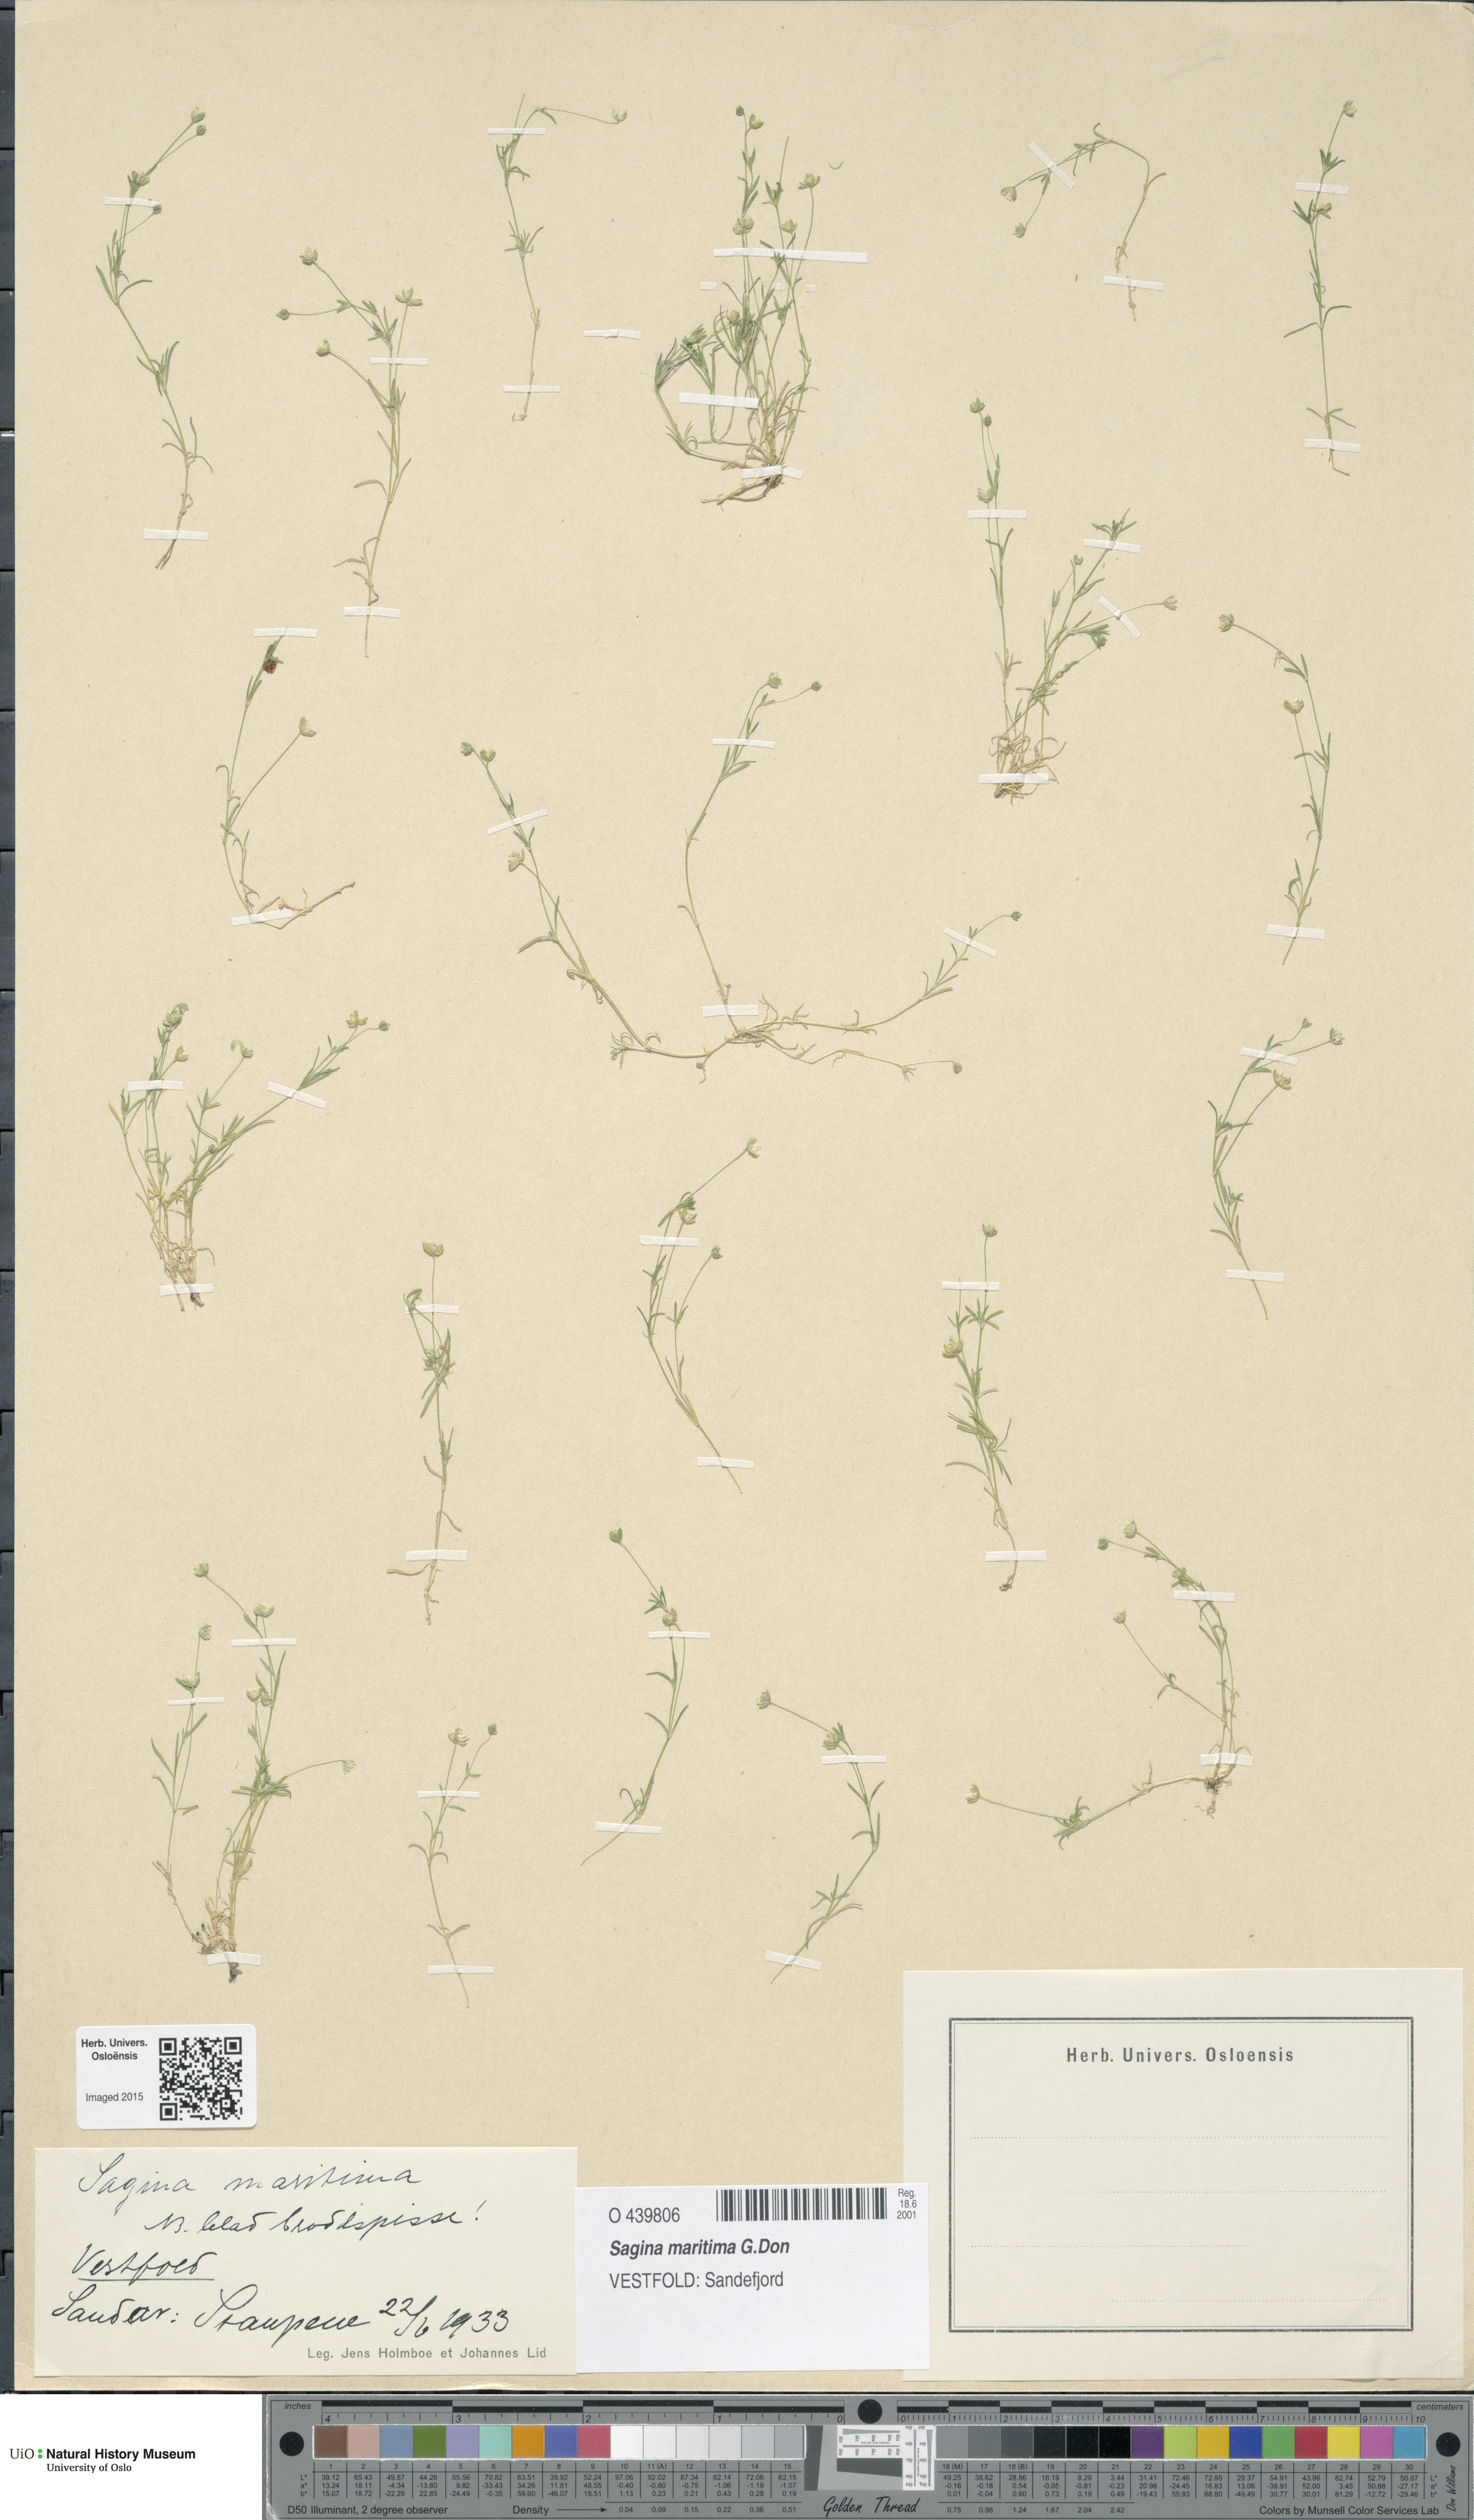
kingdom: Plantae
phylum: Tracheophyta
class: Magnoliopsida
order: Caryophyllales
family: Caryophyllaceae
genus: Sagina
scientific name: Sagina maritima
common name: Sea pearlwort
